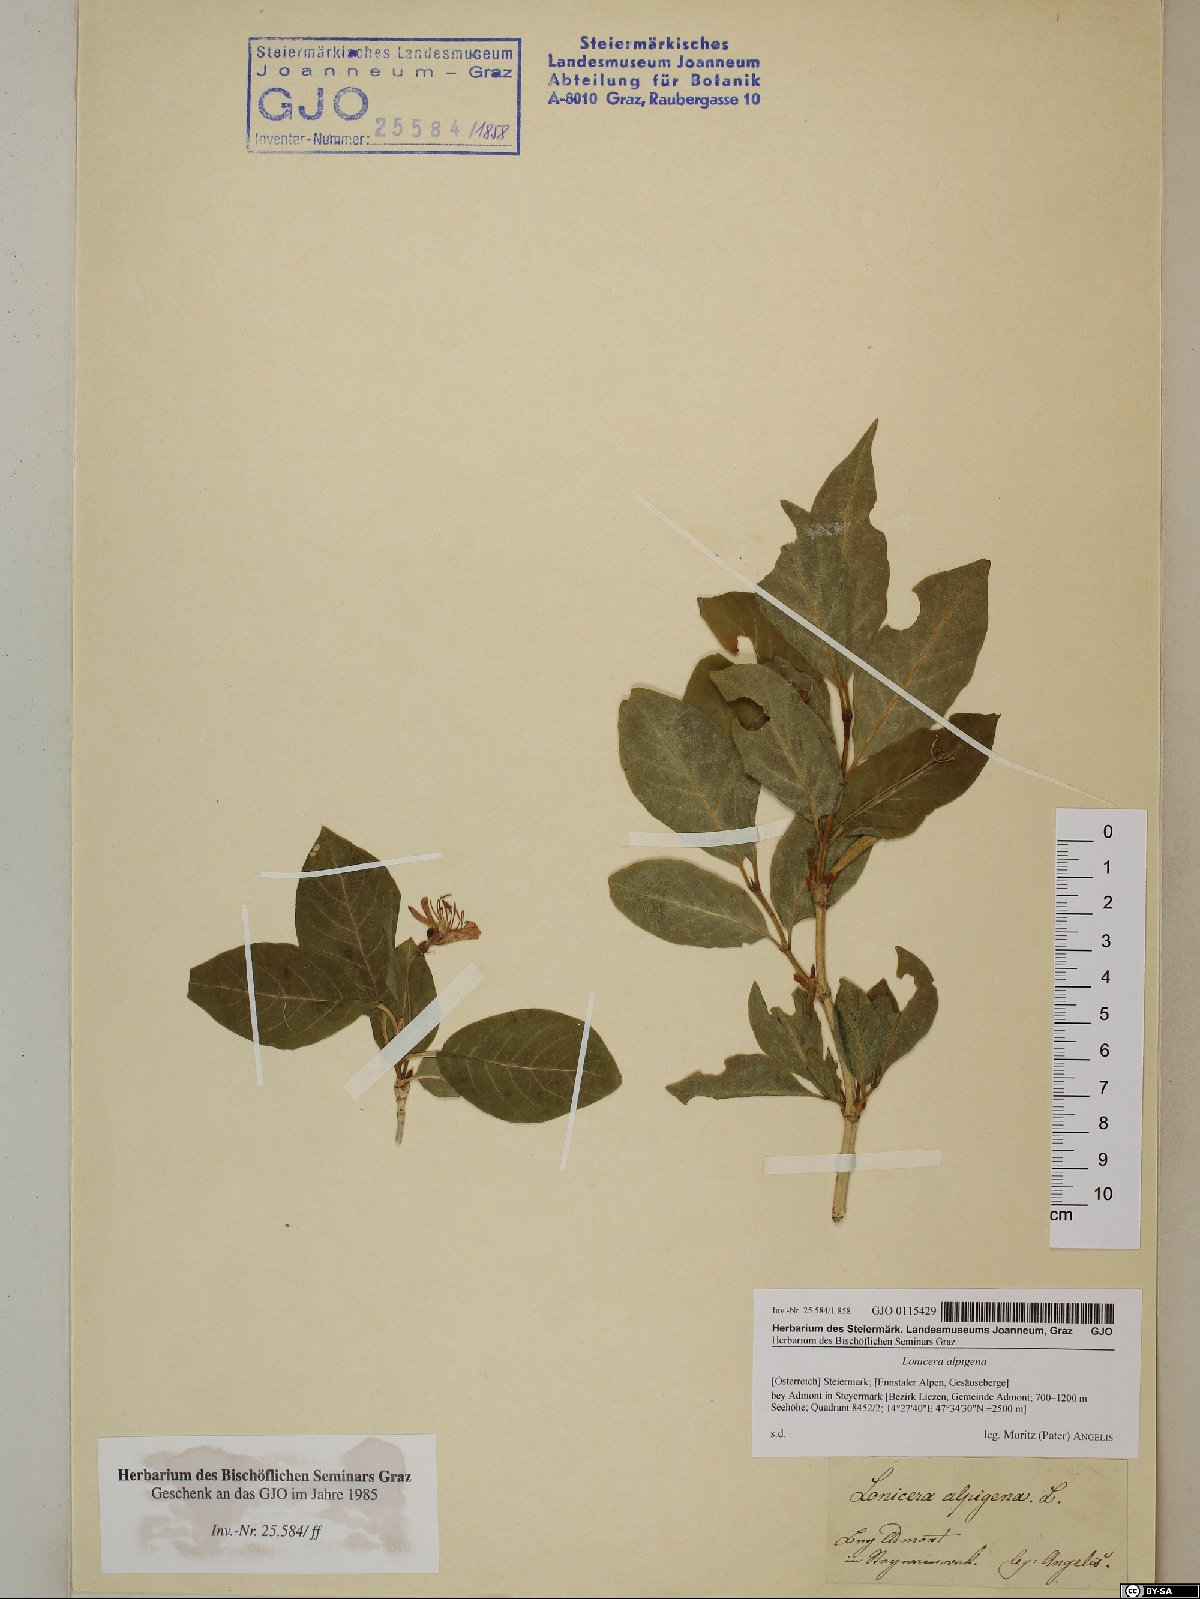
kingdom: Plantae
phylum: Tracheophyta
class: Magnoliopsida
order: Dipsacales
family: Caprifoliaceae
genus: Lonicera
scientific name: Lonicera alpigena
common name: Alpine honeysuckle
